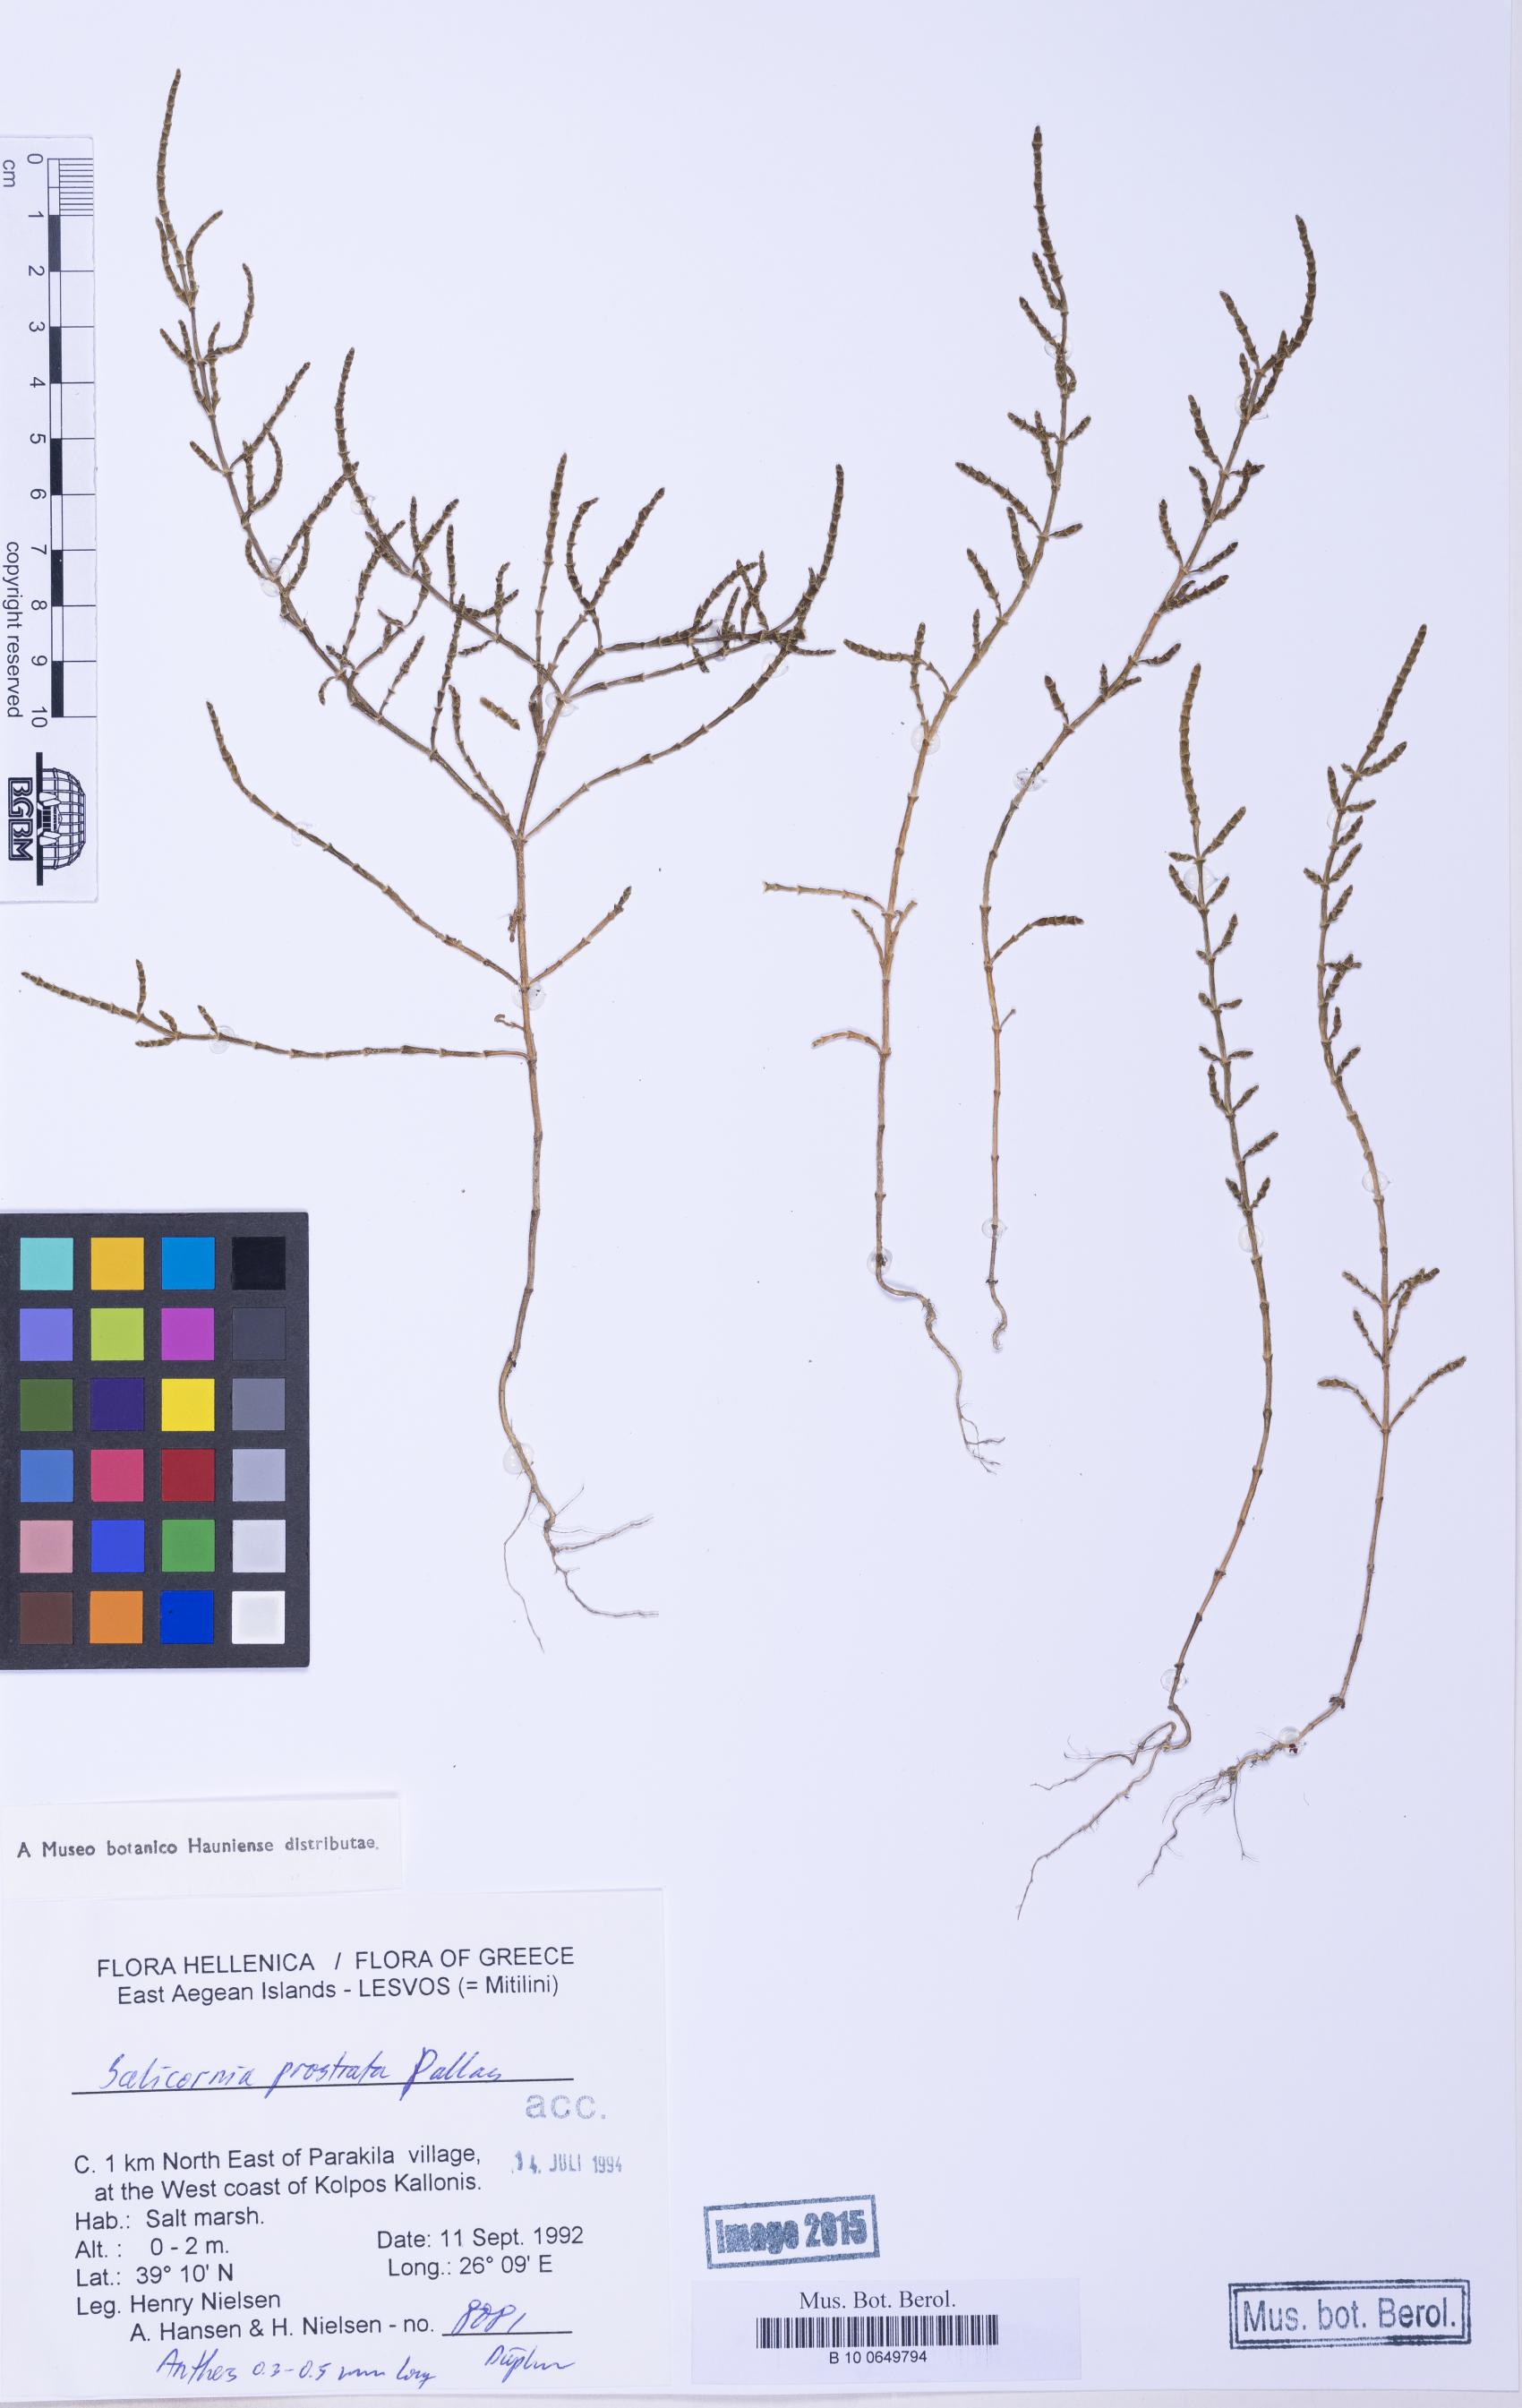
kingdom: Plantae
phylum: Tracheophyta
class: Magnoliopsida
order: Caryophyllales
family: Amaranthaceae
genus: Salicornia
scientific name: Salicornia perennans
